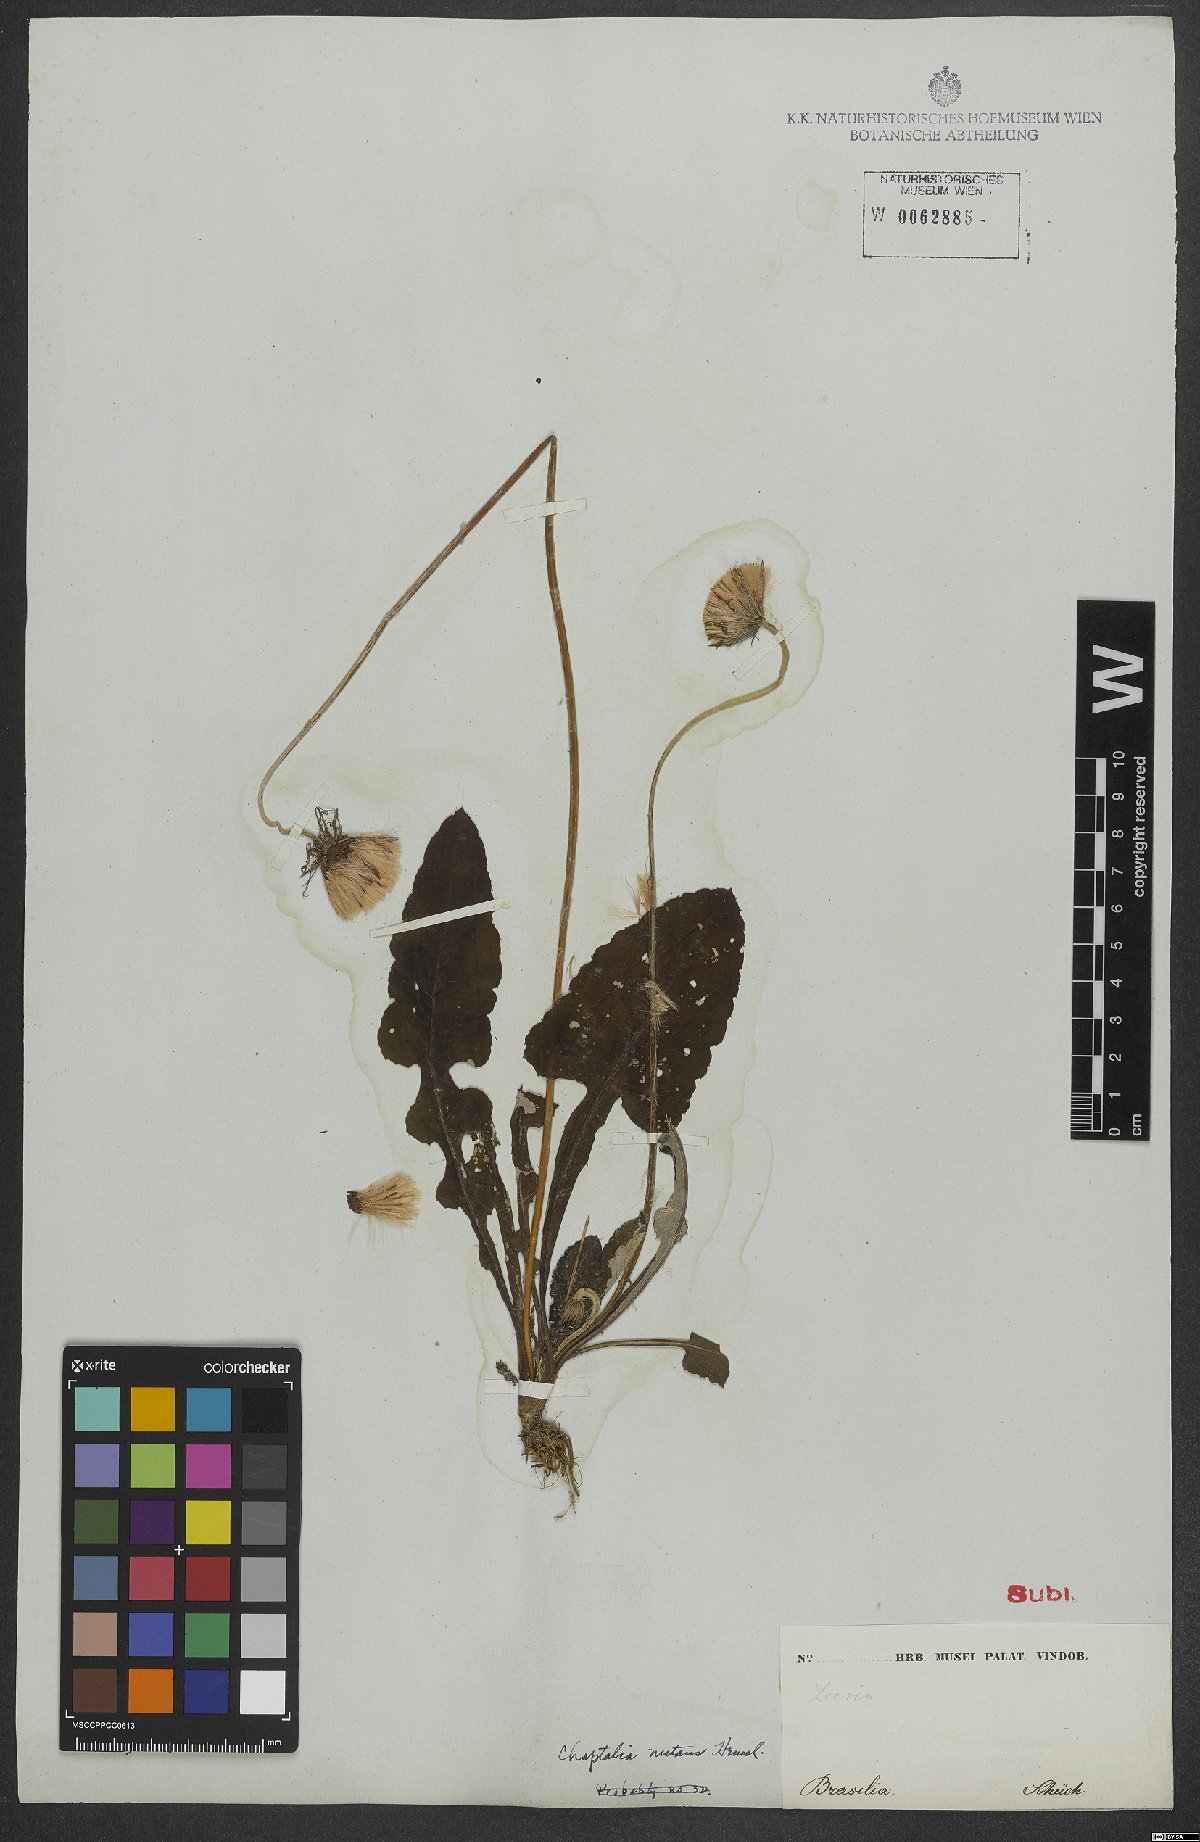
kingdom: Plantae
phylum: Tracheophyta
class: Magnoliopsida
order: Asterales
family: Asteraceae
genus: Chaptalia
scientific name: Chaptalia nutans
